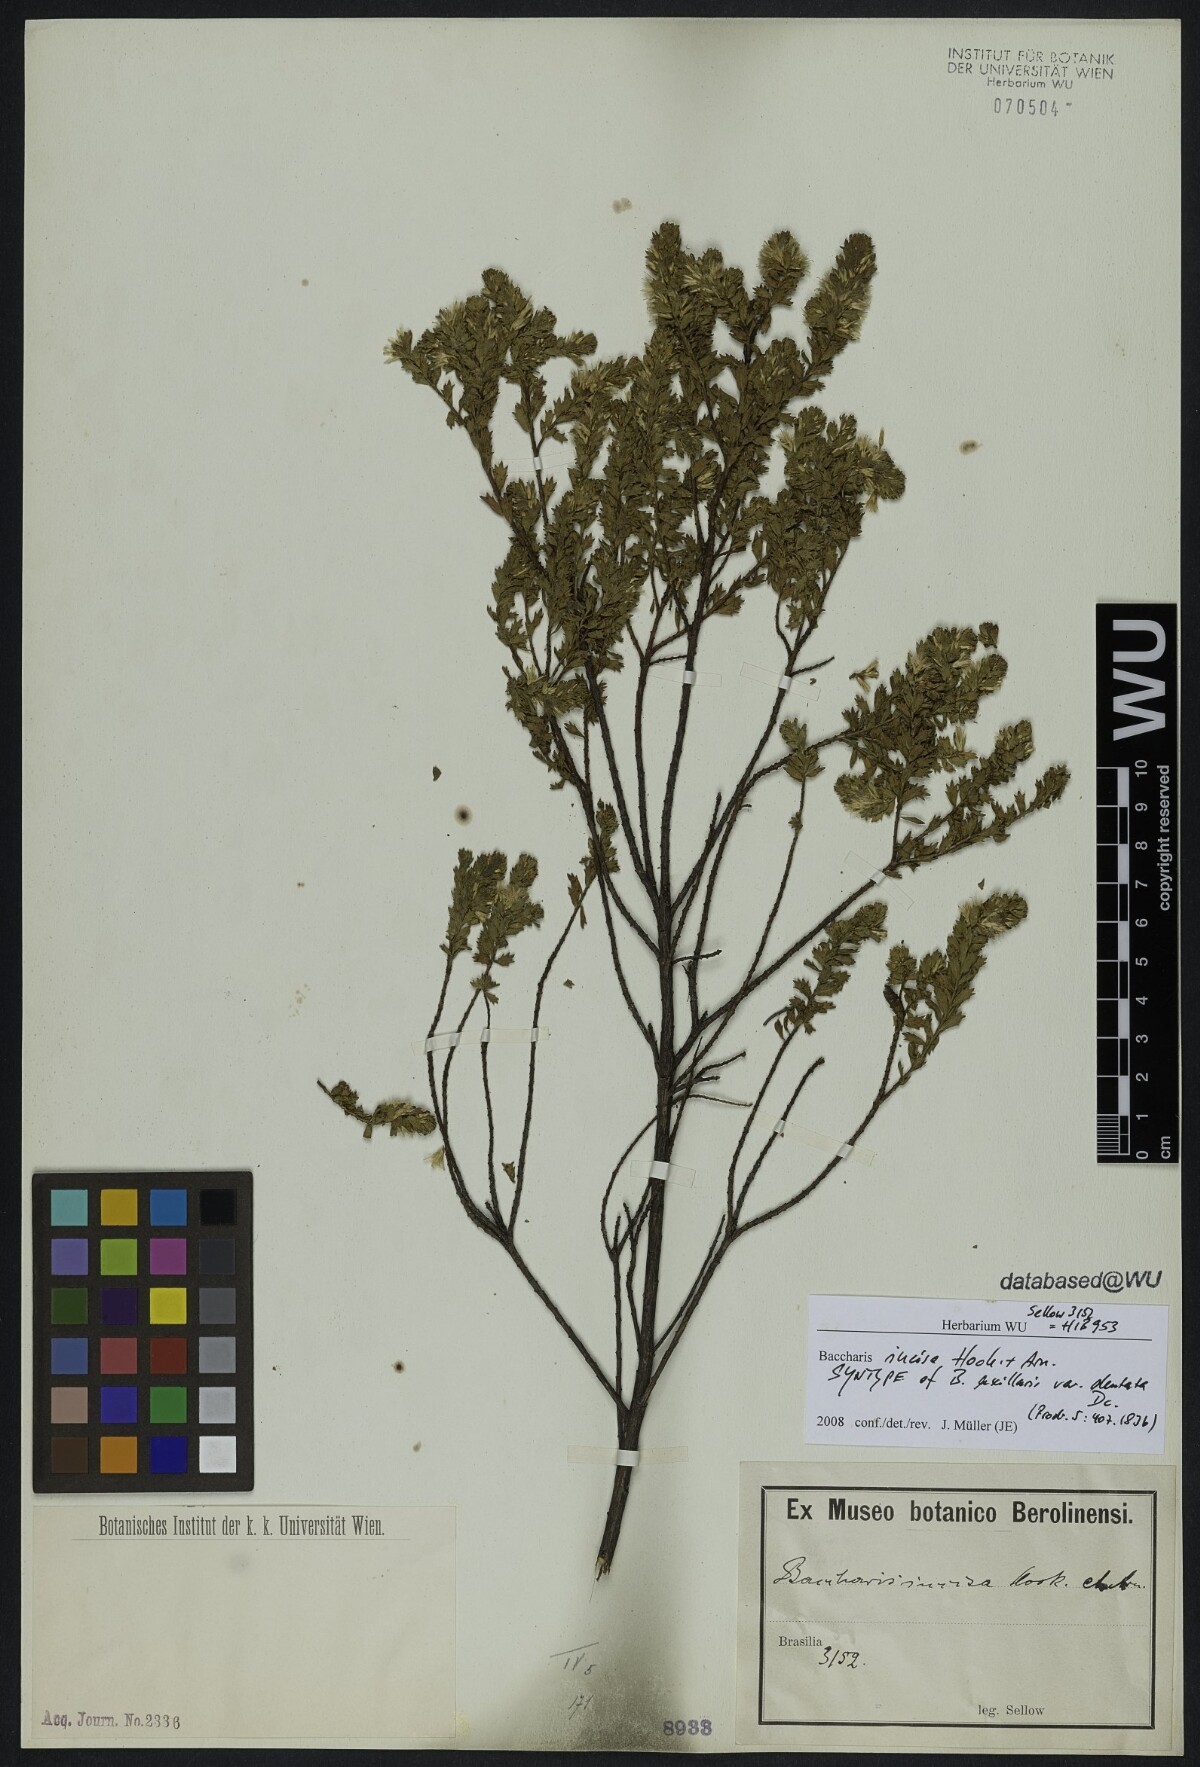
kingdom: Plantae
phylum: Tracheophyta
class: Magnoliopsida
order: Asterales
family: Asteraceae
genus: Baccharis
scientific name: Baccharis gaucha
